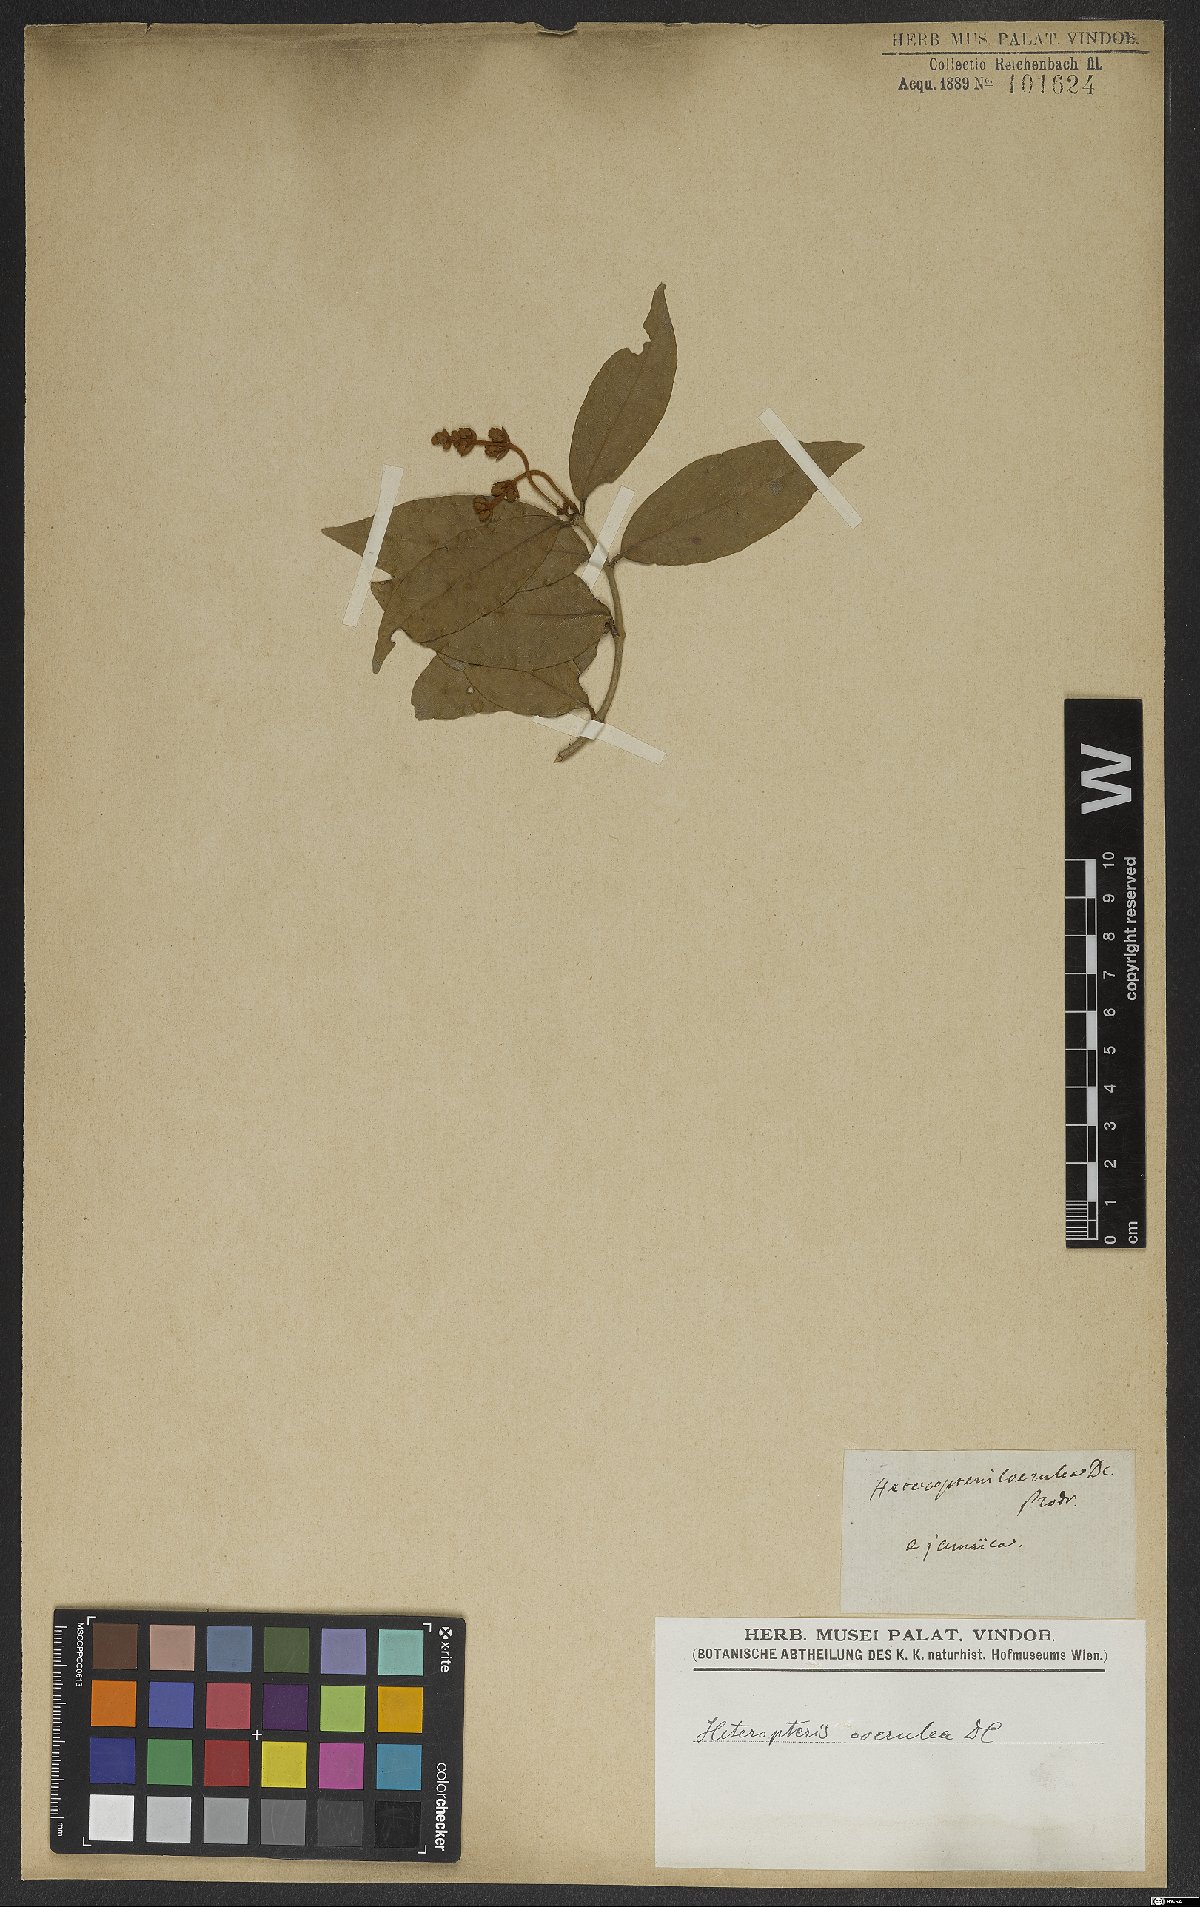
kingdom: Plantae
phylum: Tracheophyta
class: Magnoliopsida
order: Malpighiales
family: Malpighiaceae
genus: Heteropterys
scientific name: Heteropterys orinocensis
